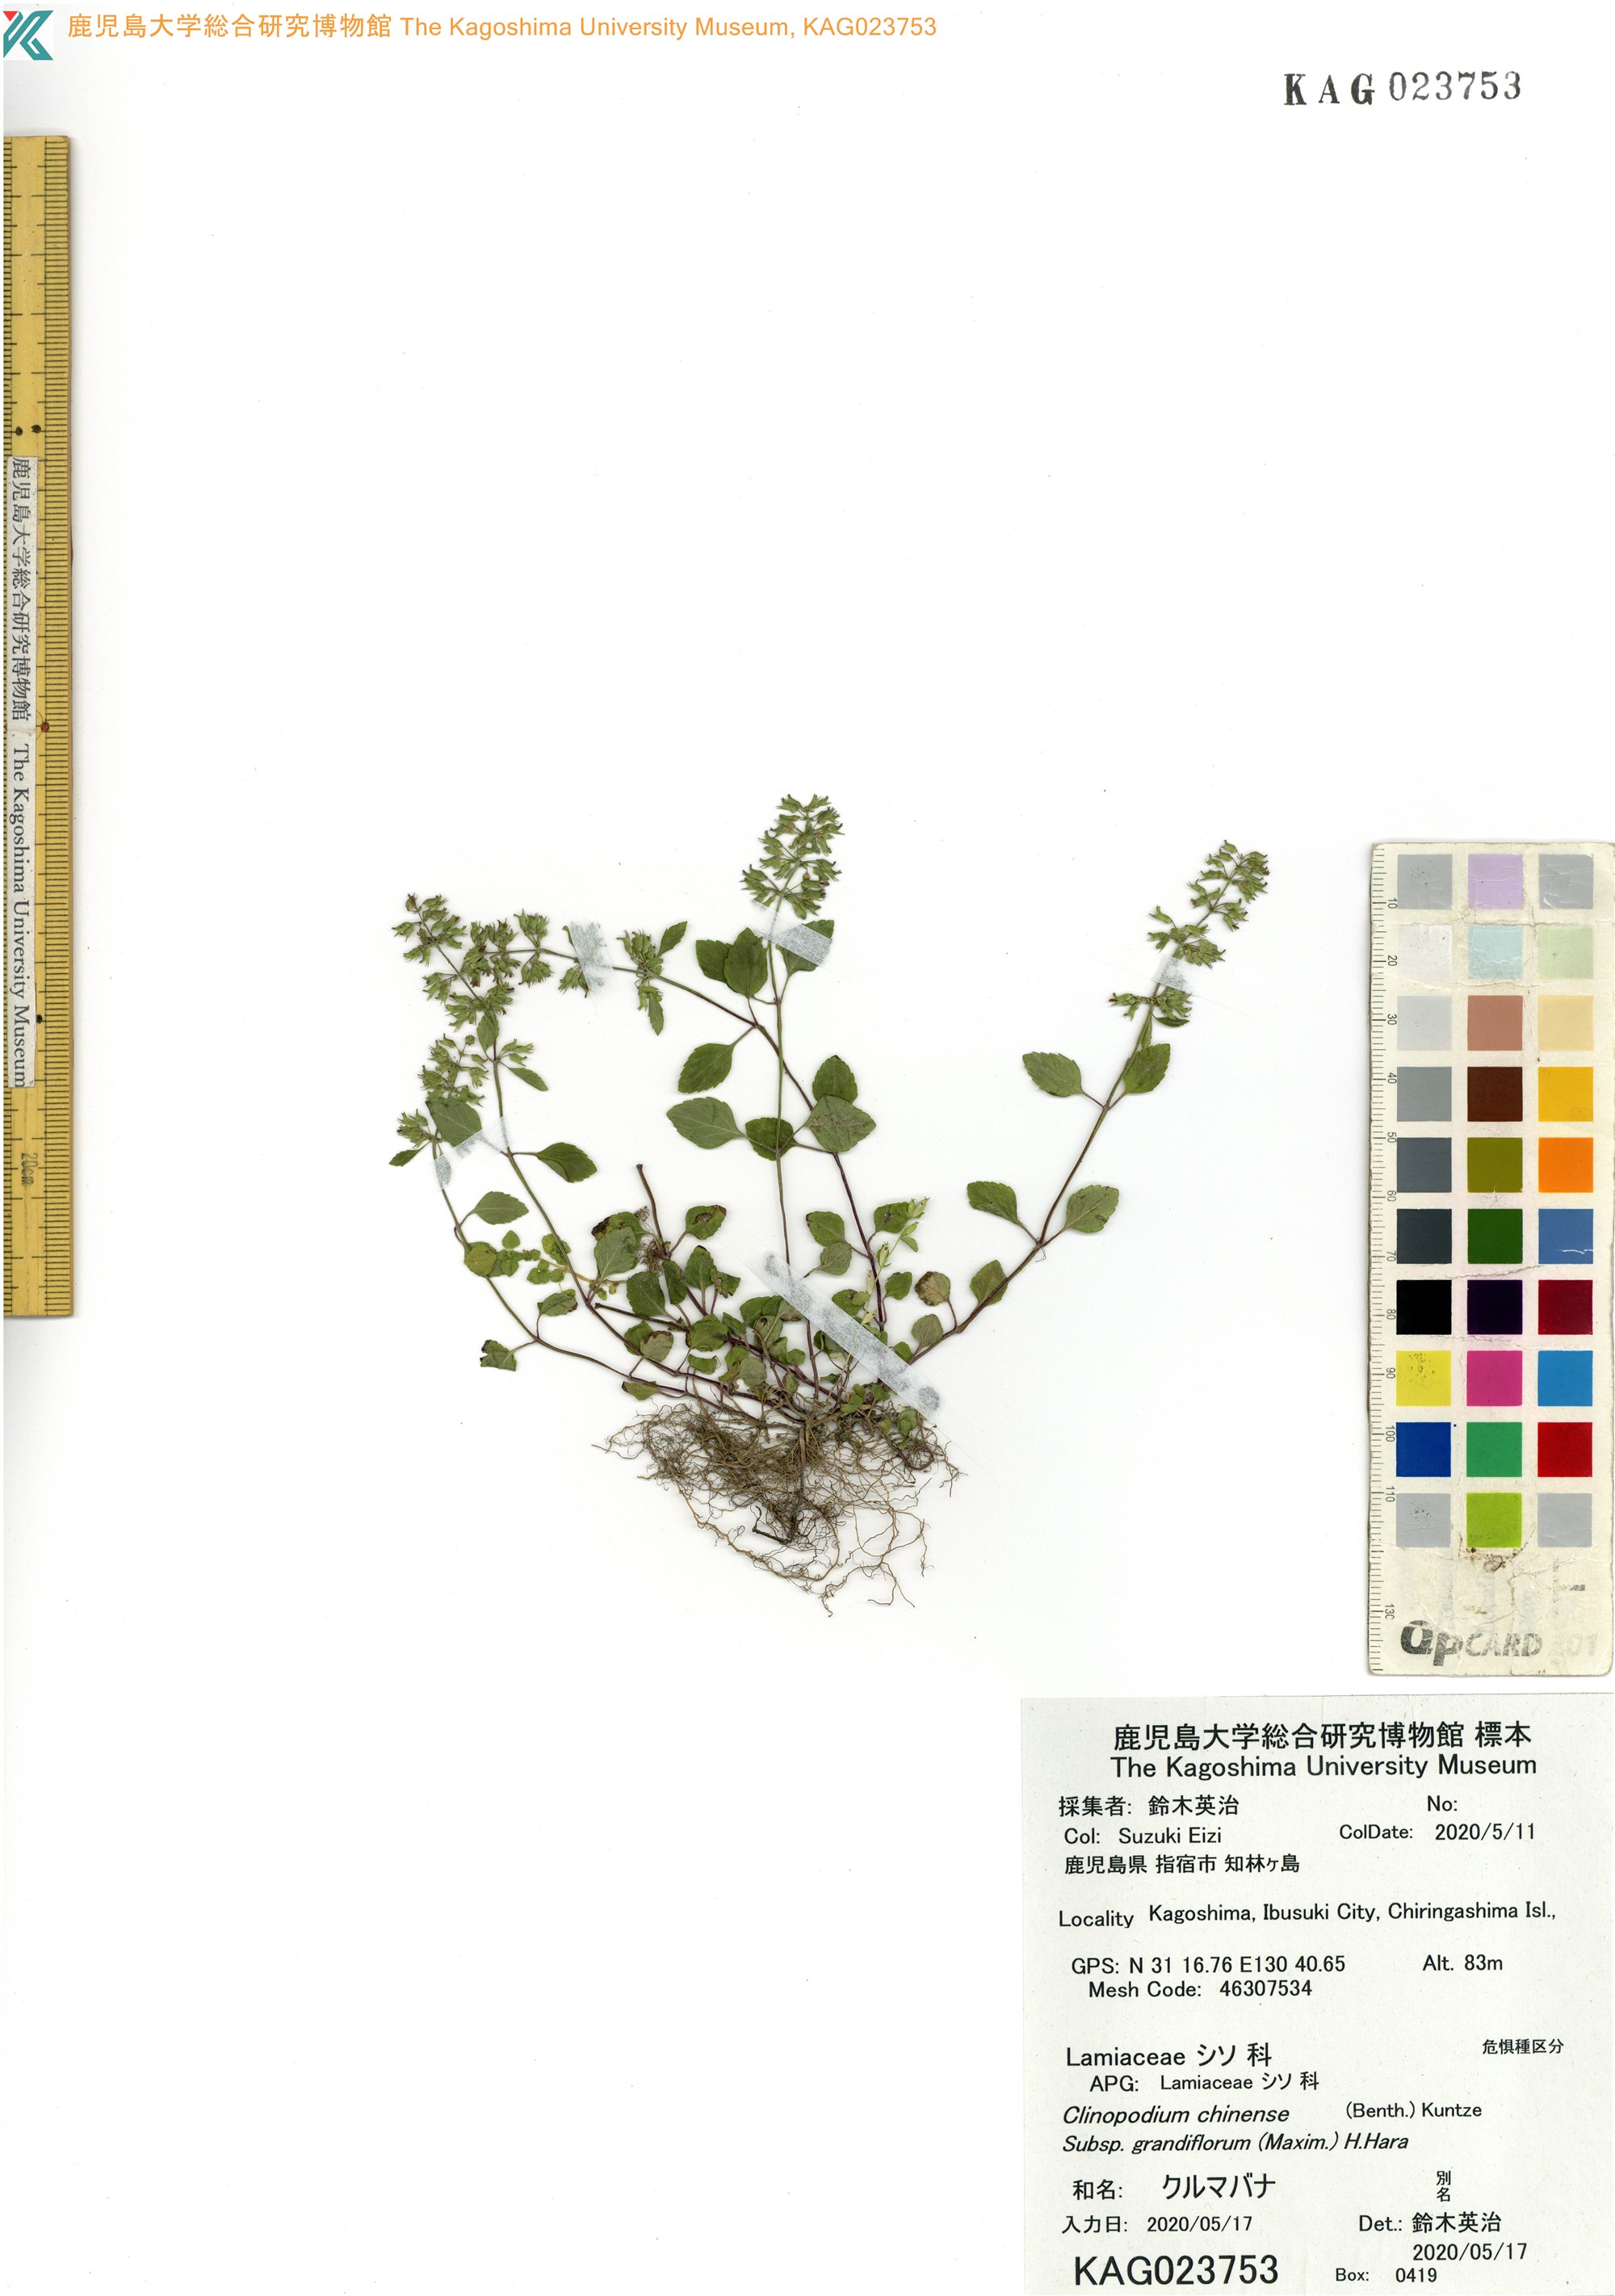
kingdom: Plantae
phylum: Tracheophyta
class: Magnoliopsida
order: Lamiales
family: Lamiaceae
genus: Clinopodium
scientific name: Clinopodium gracile
